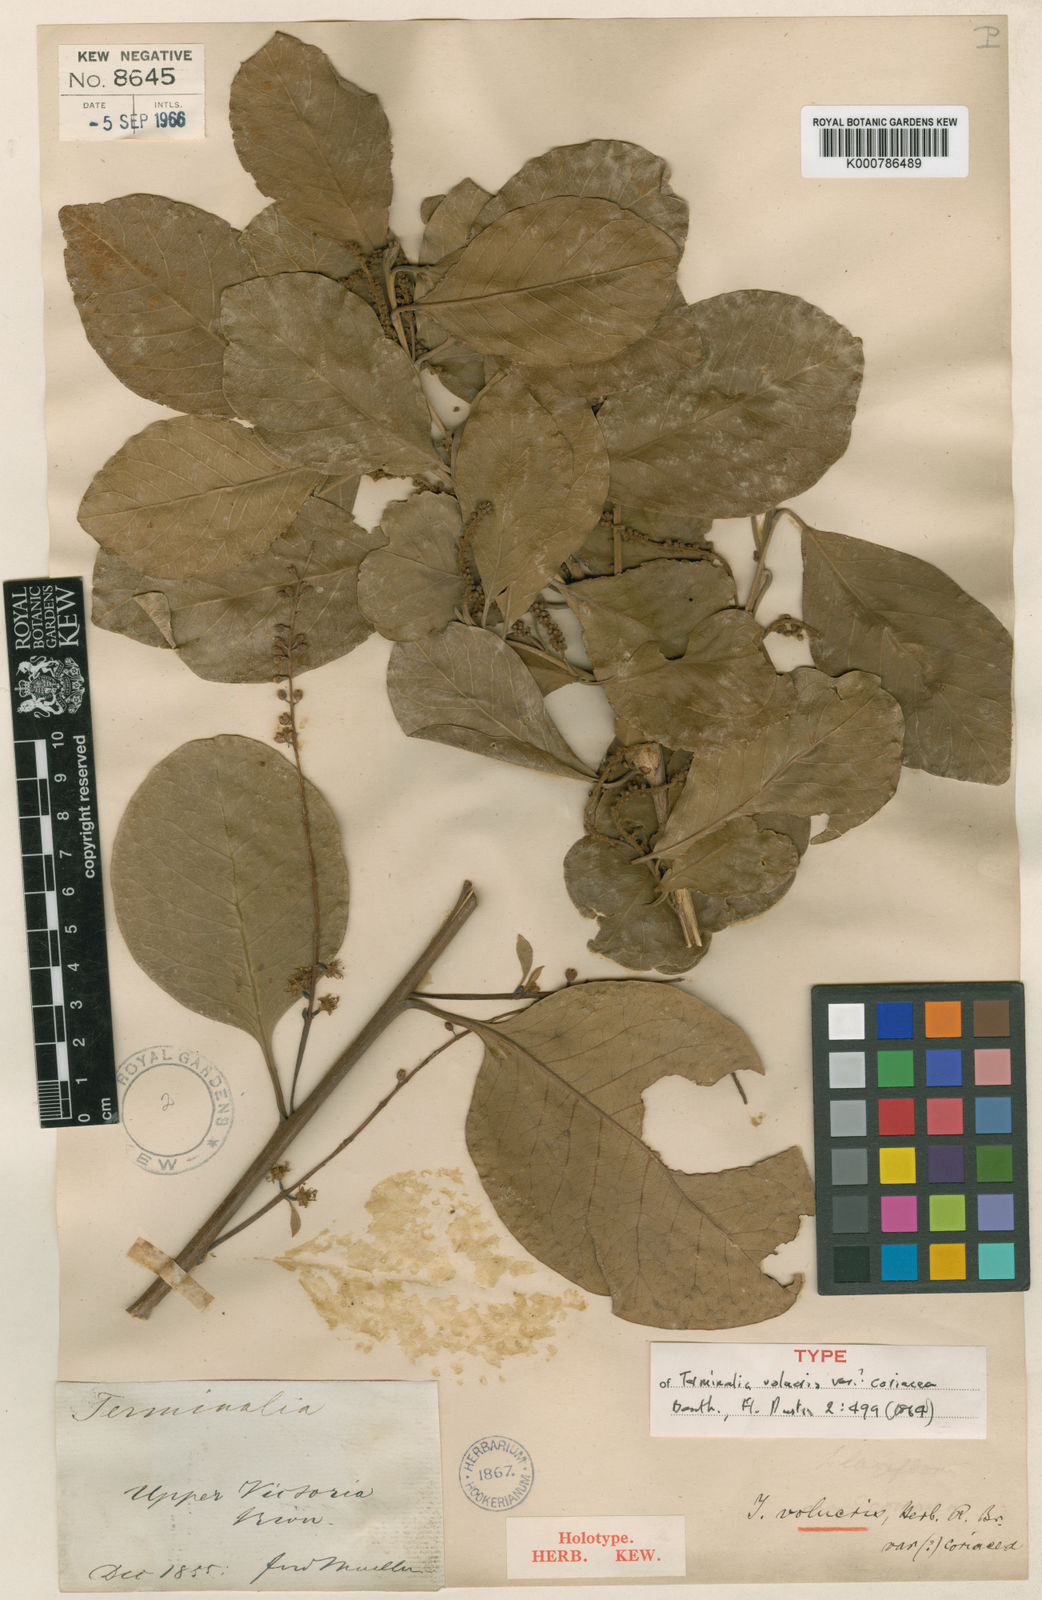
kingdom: Plantae
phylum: Tracheophyta
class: Magnoliopsida
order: Myrtales
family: Combretaceae
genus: Terminalia
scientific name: Terminalia volucris
